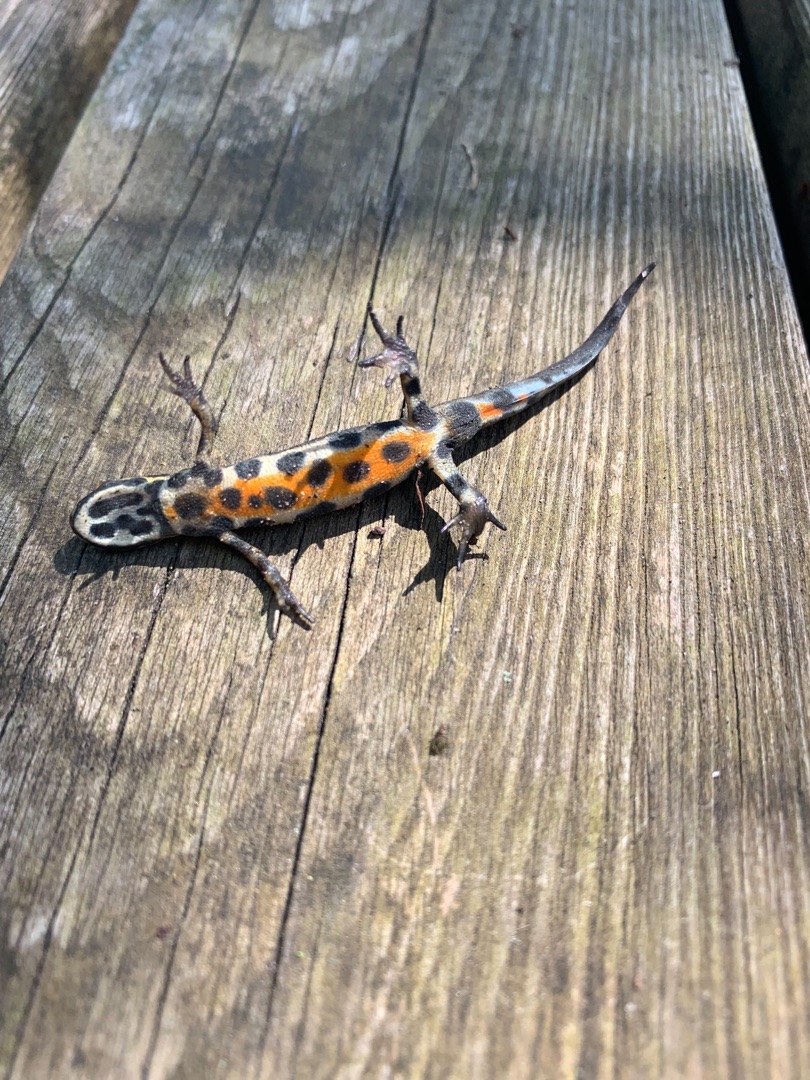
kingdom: Animalia
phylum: Chordata
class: Amphibia
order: Caudata
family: Salamandridae
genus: Lissotriton
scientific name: Lissotriton vulgaris
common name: Lille vandsalamander
